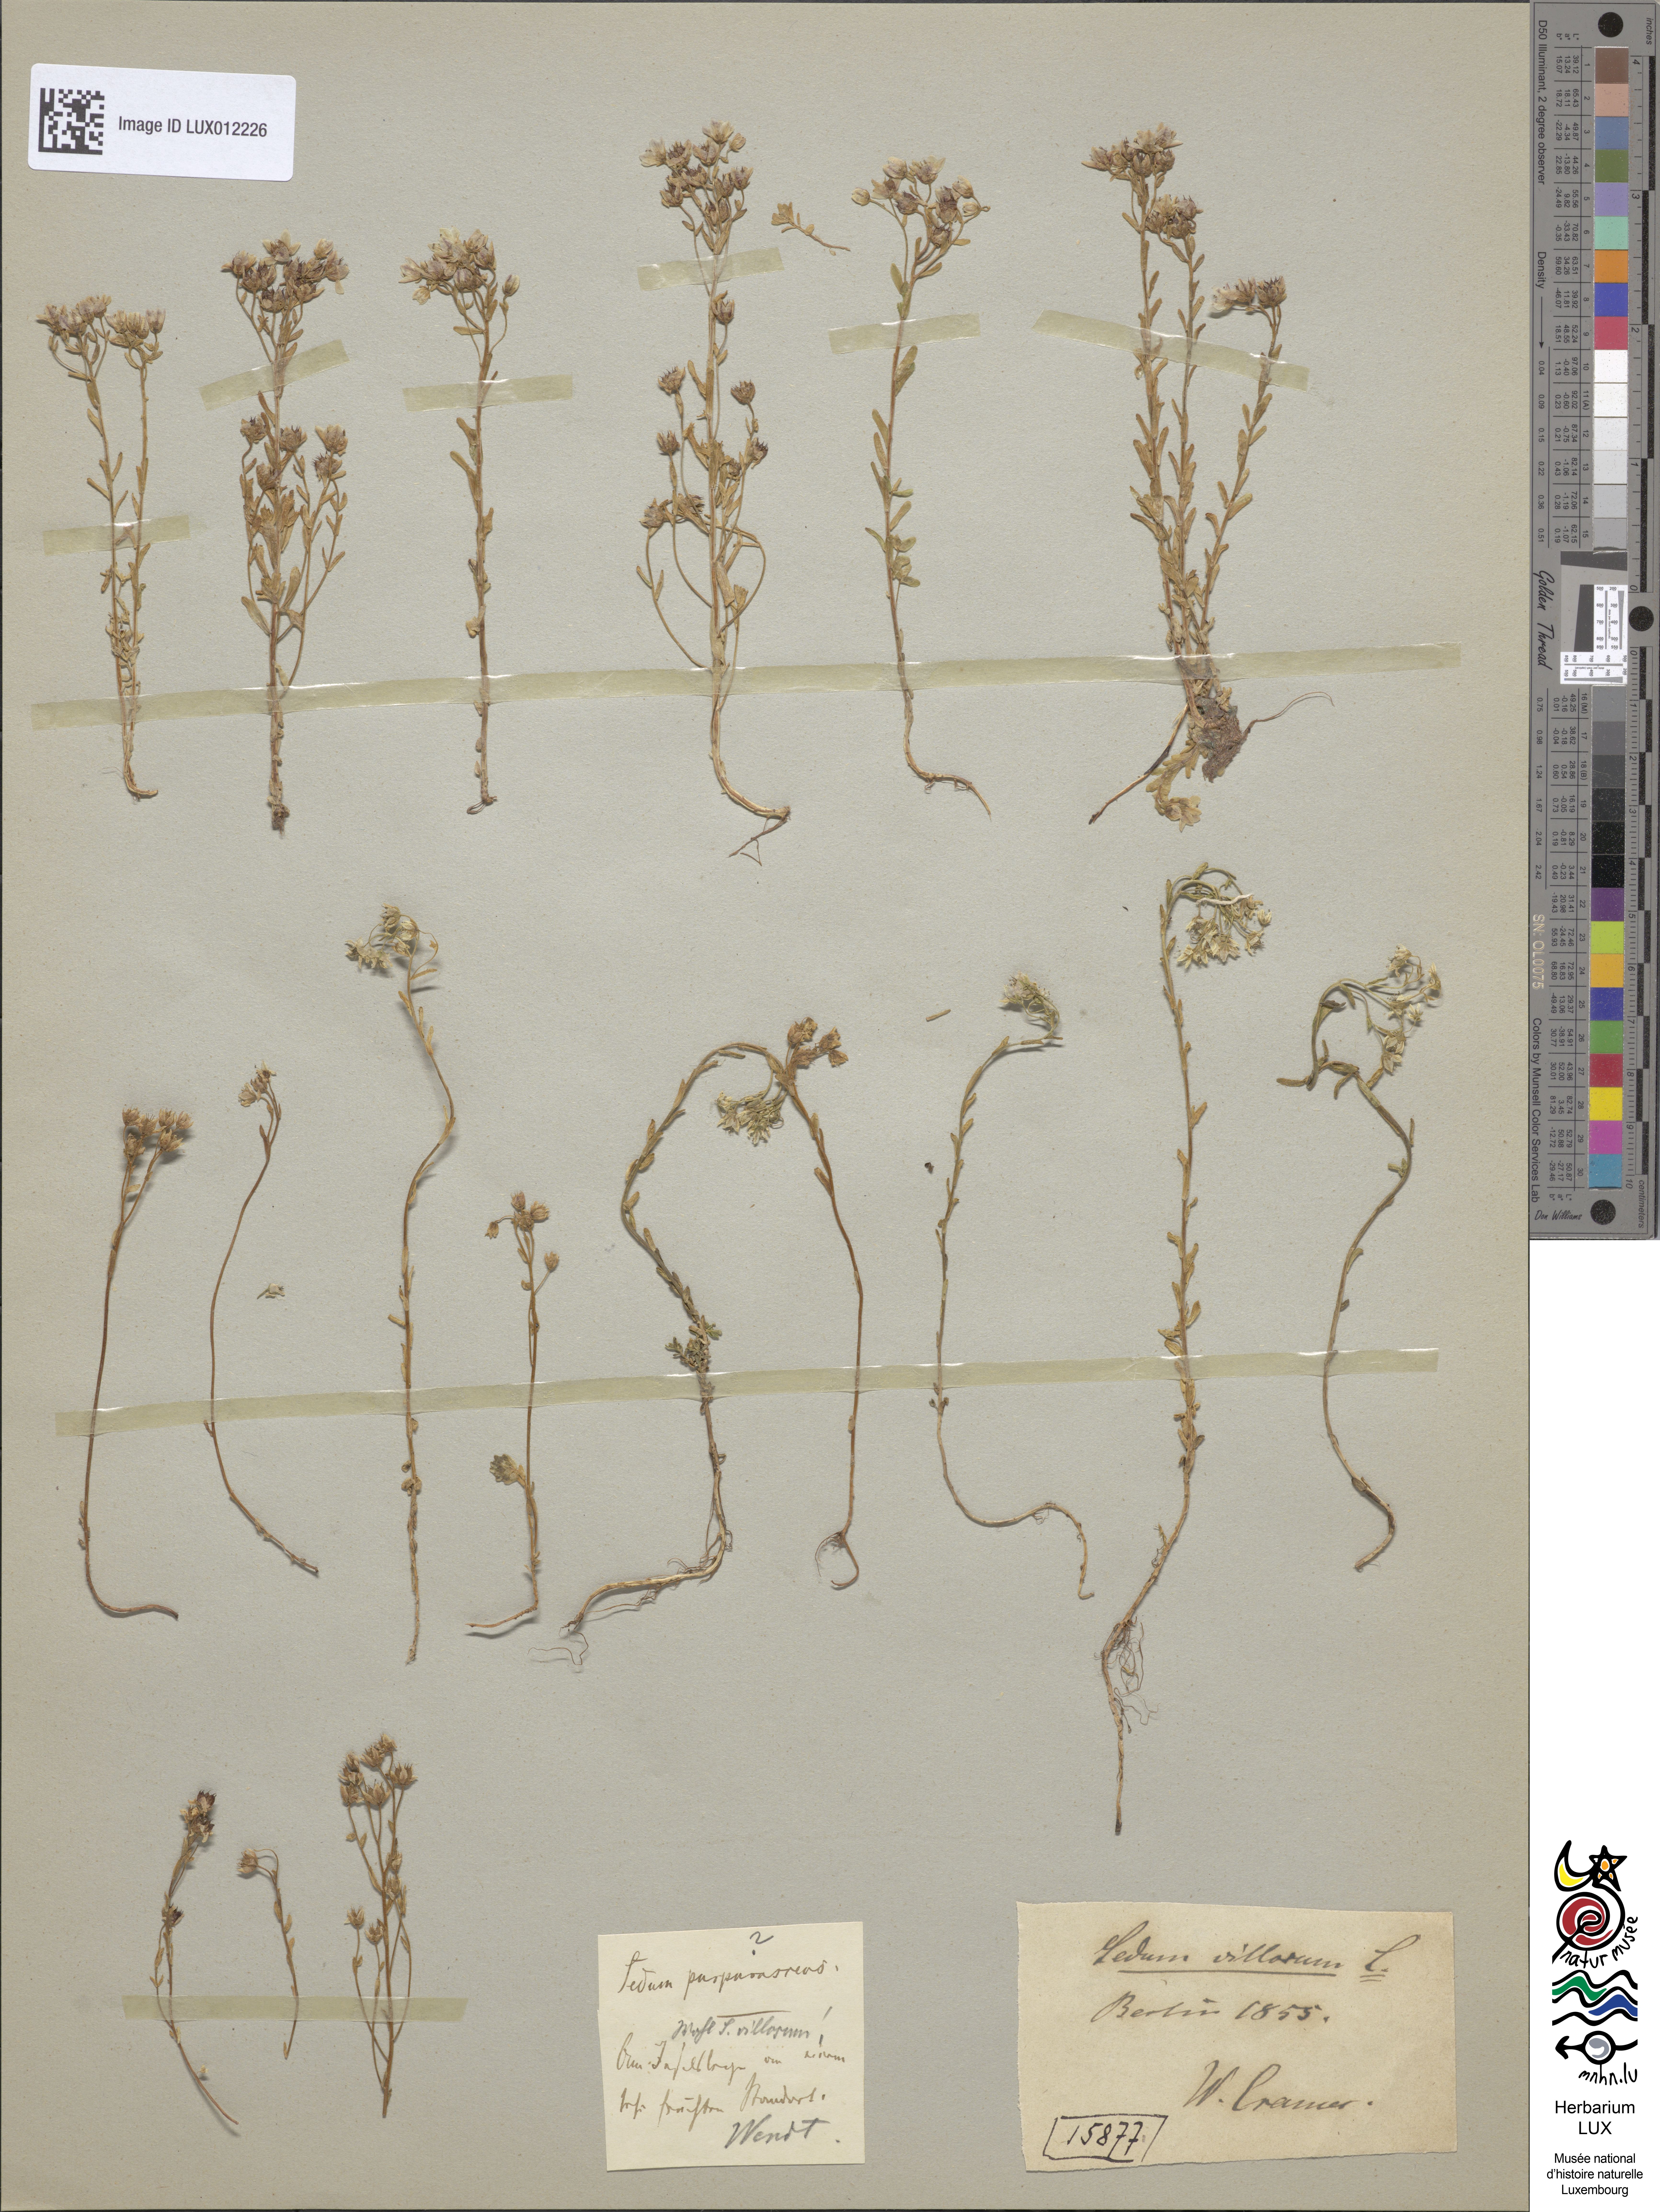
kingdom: Plantae
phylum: Tracheophyta
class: Magnoliopsida
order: Saxifragales
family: Crassulaceae
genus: Sedum
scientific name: Sedum villosum
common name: Hairy stonecrop
